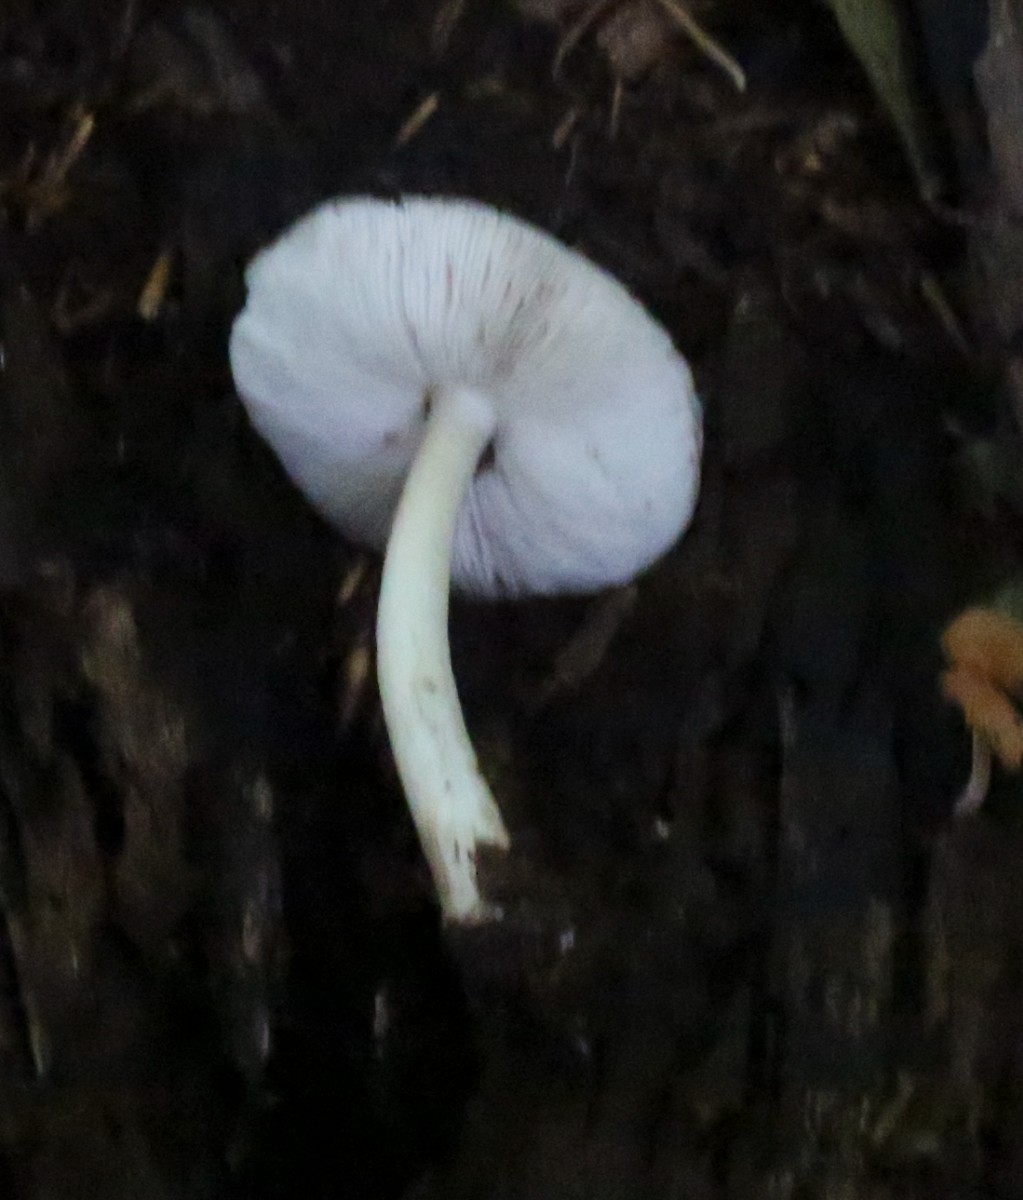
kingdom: Fungi
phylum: Basidiomycota
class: Agaricomycetes
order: Agaricales
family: Pluteaceae
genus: Pluteus
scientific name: Pluteus cervinus
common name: sodfarvet skærmhat
